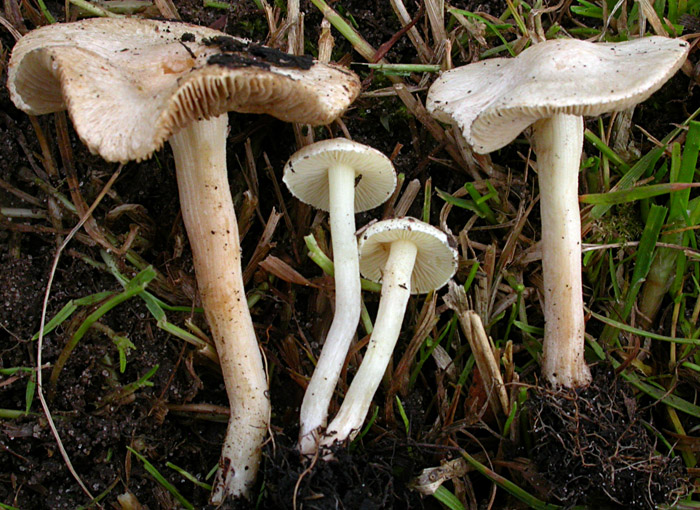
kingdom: Fungi
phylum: Basidiomycota
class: Agaricomycetes
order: Agaricales
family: Inocybaceae
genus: Inocybe
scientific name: Inocybe paludinella
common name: mose-trævlhat
